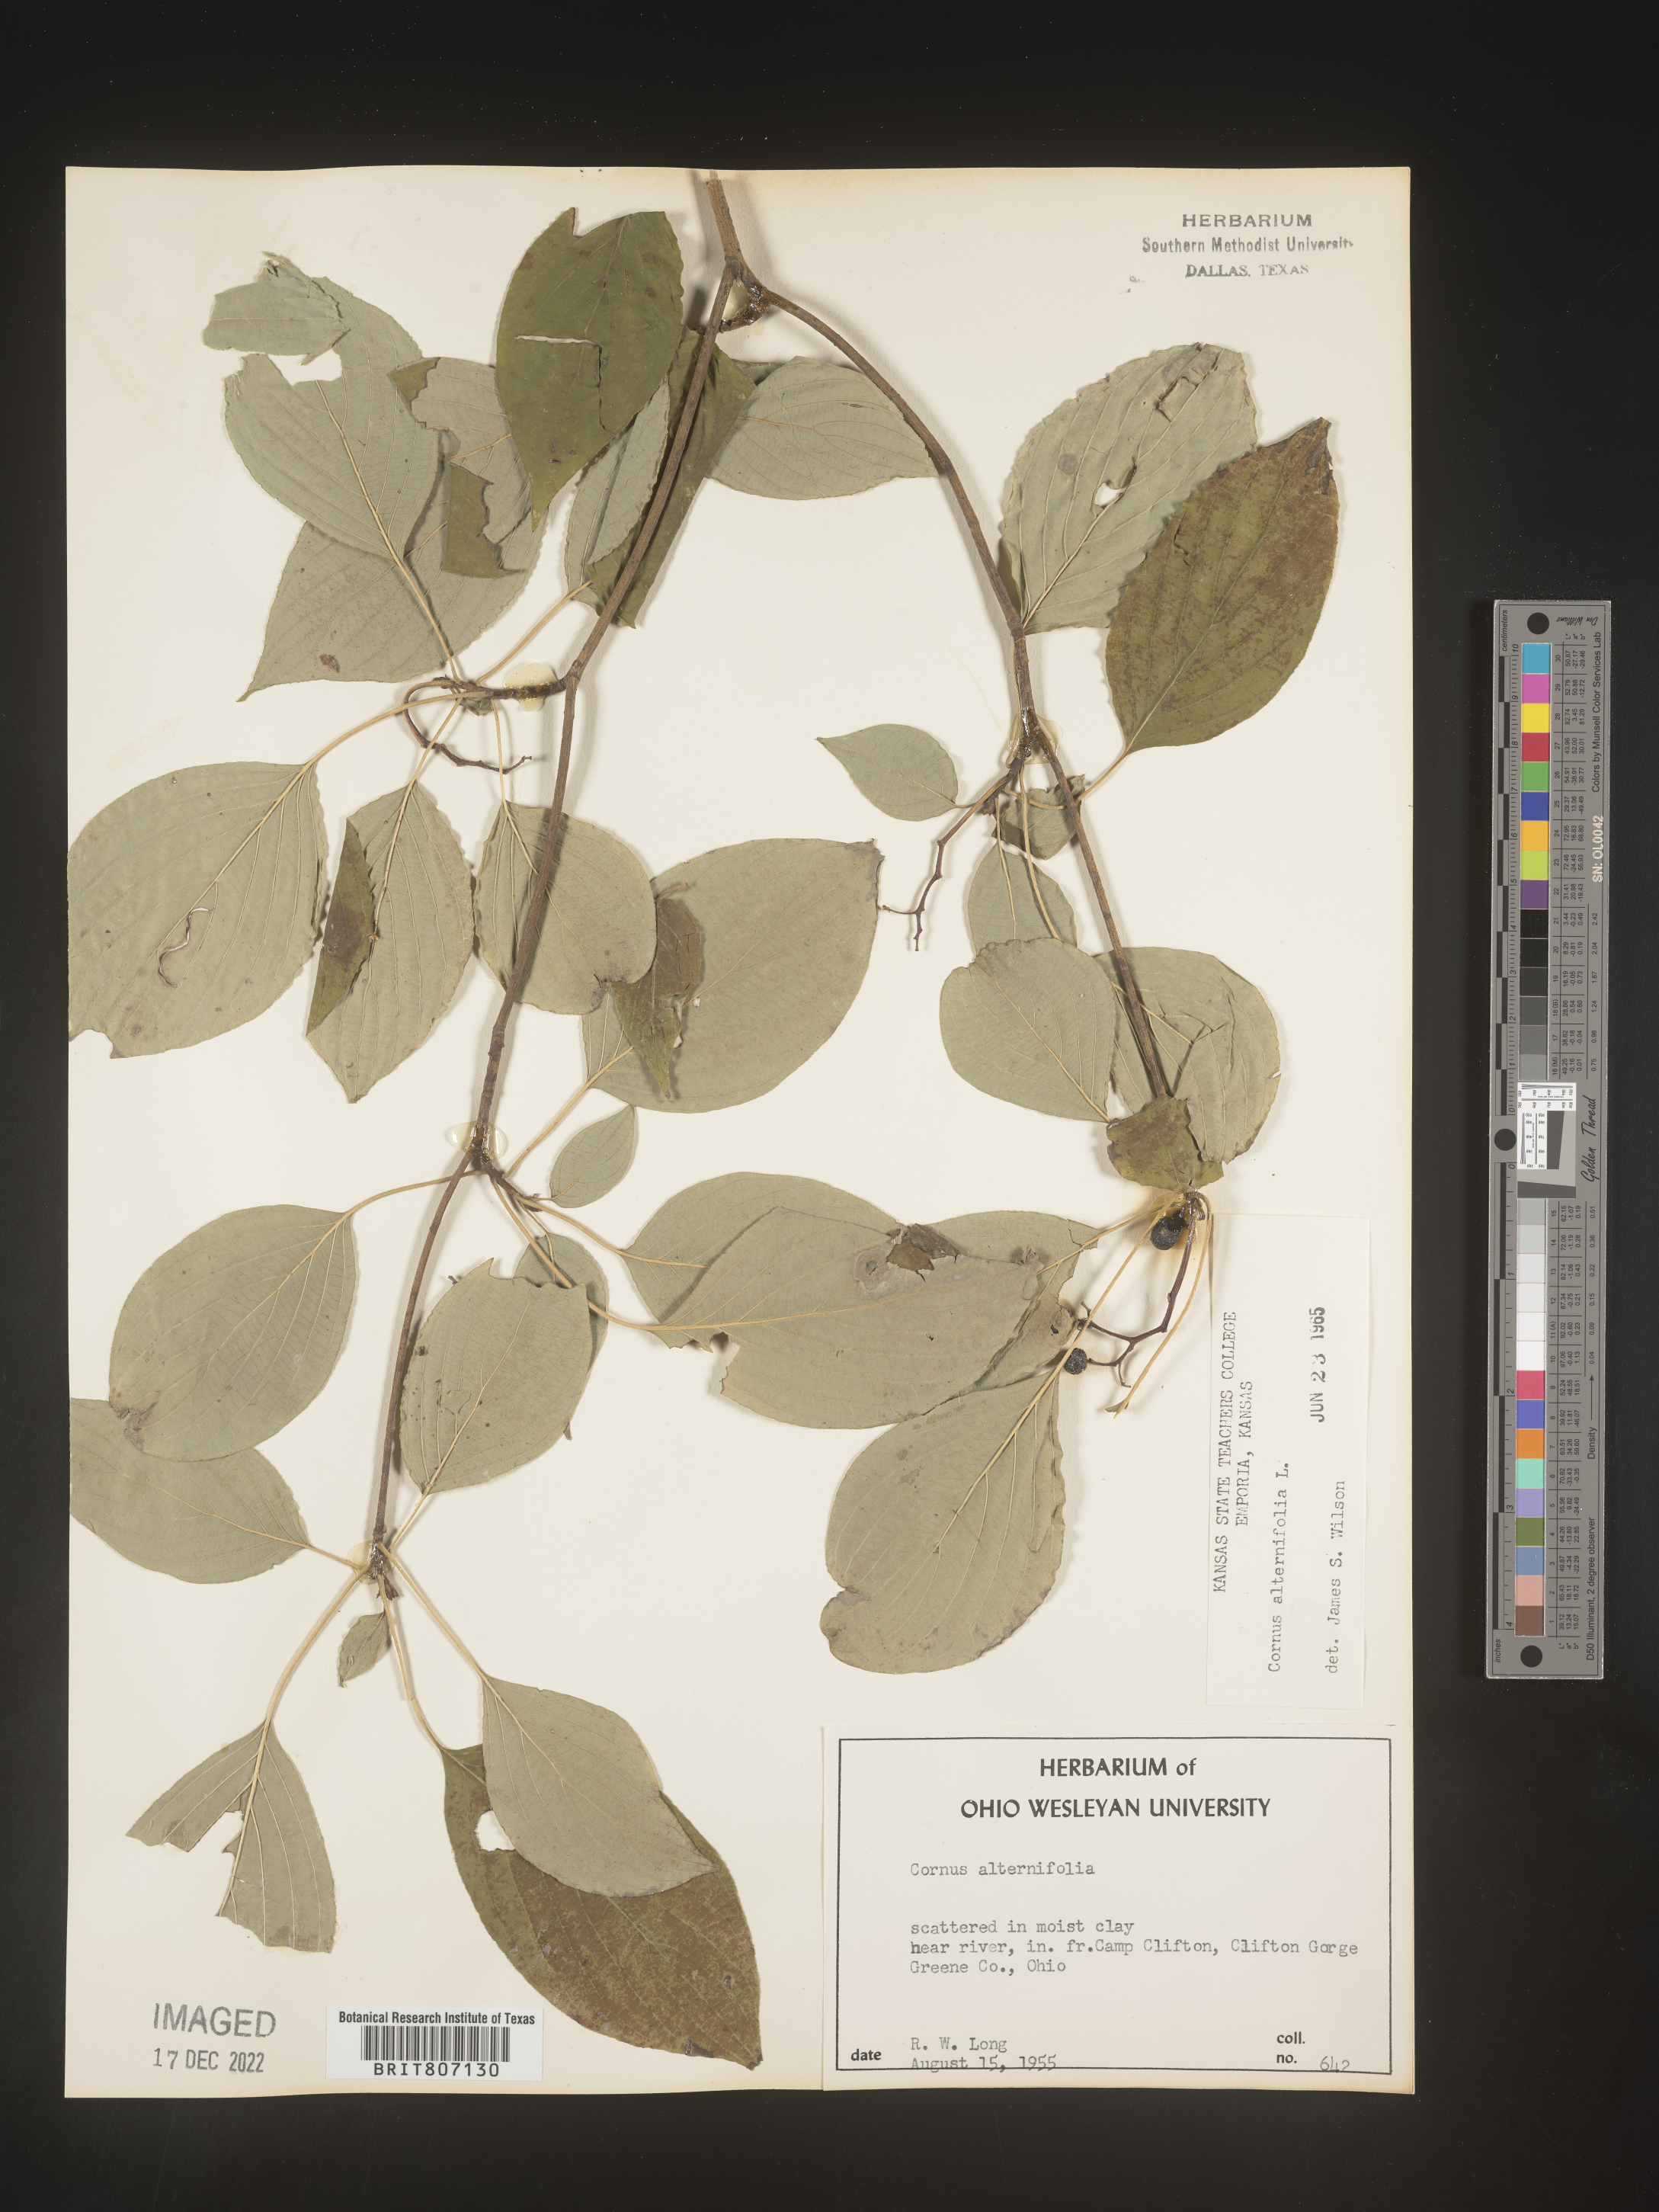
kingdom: Plantae
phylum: Tracheophyta
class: Magnoliopsida
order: Cornales
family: Cornaceae
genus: Cornus
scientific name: Cornus alternifolia
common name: Pagoda dogwood
